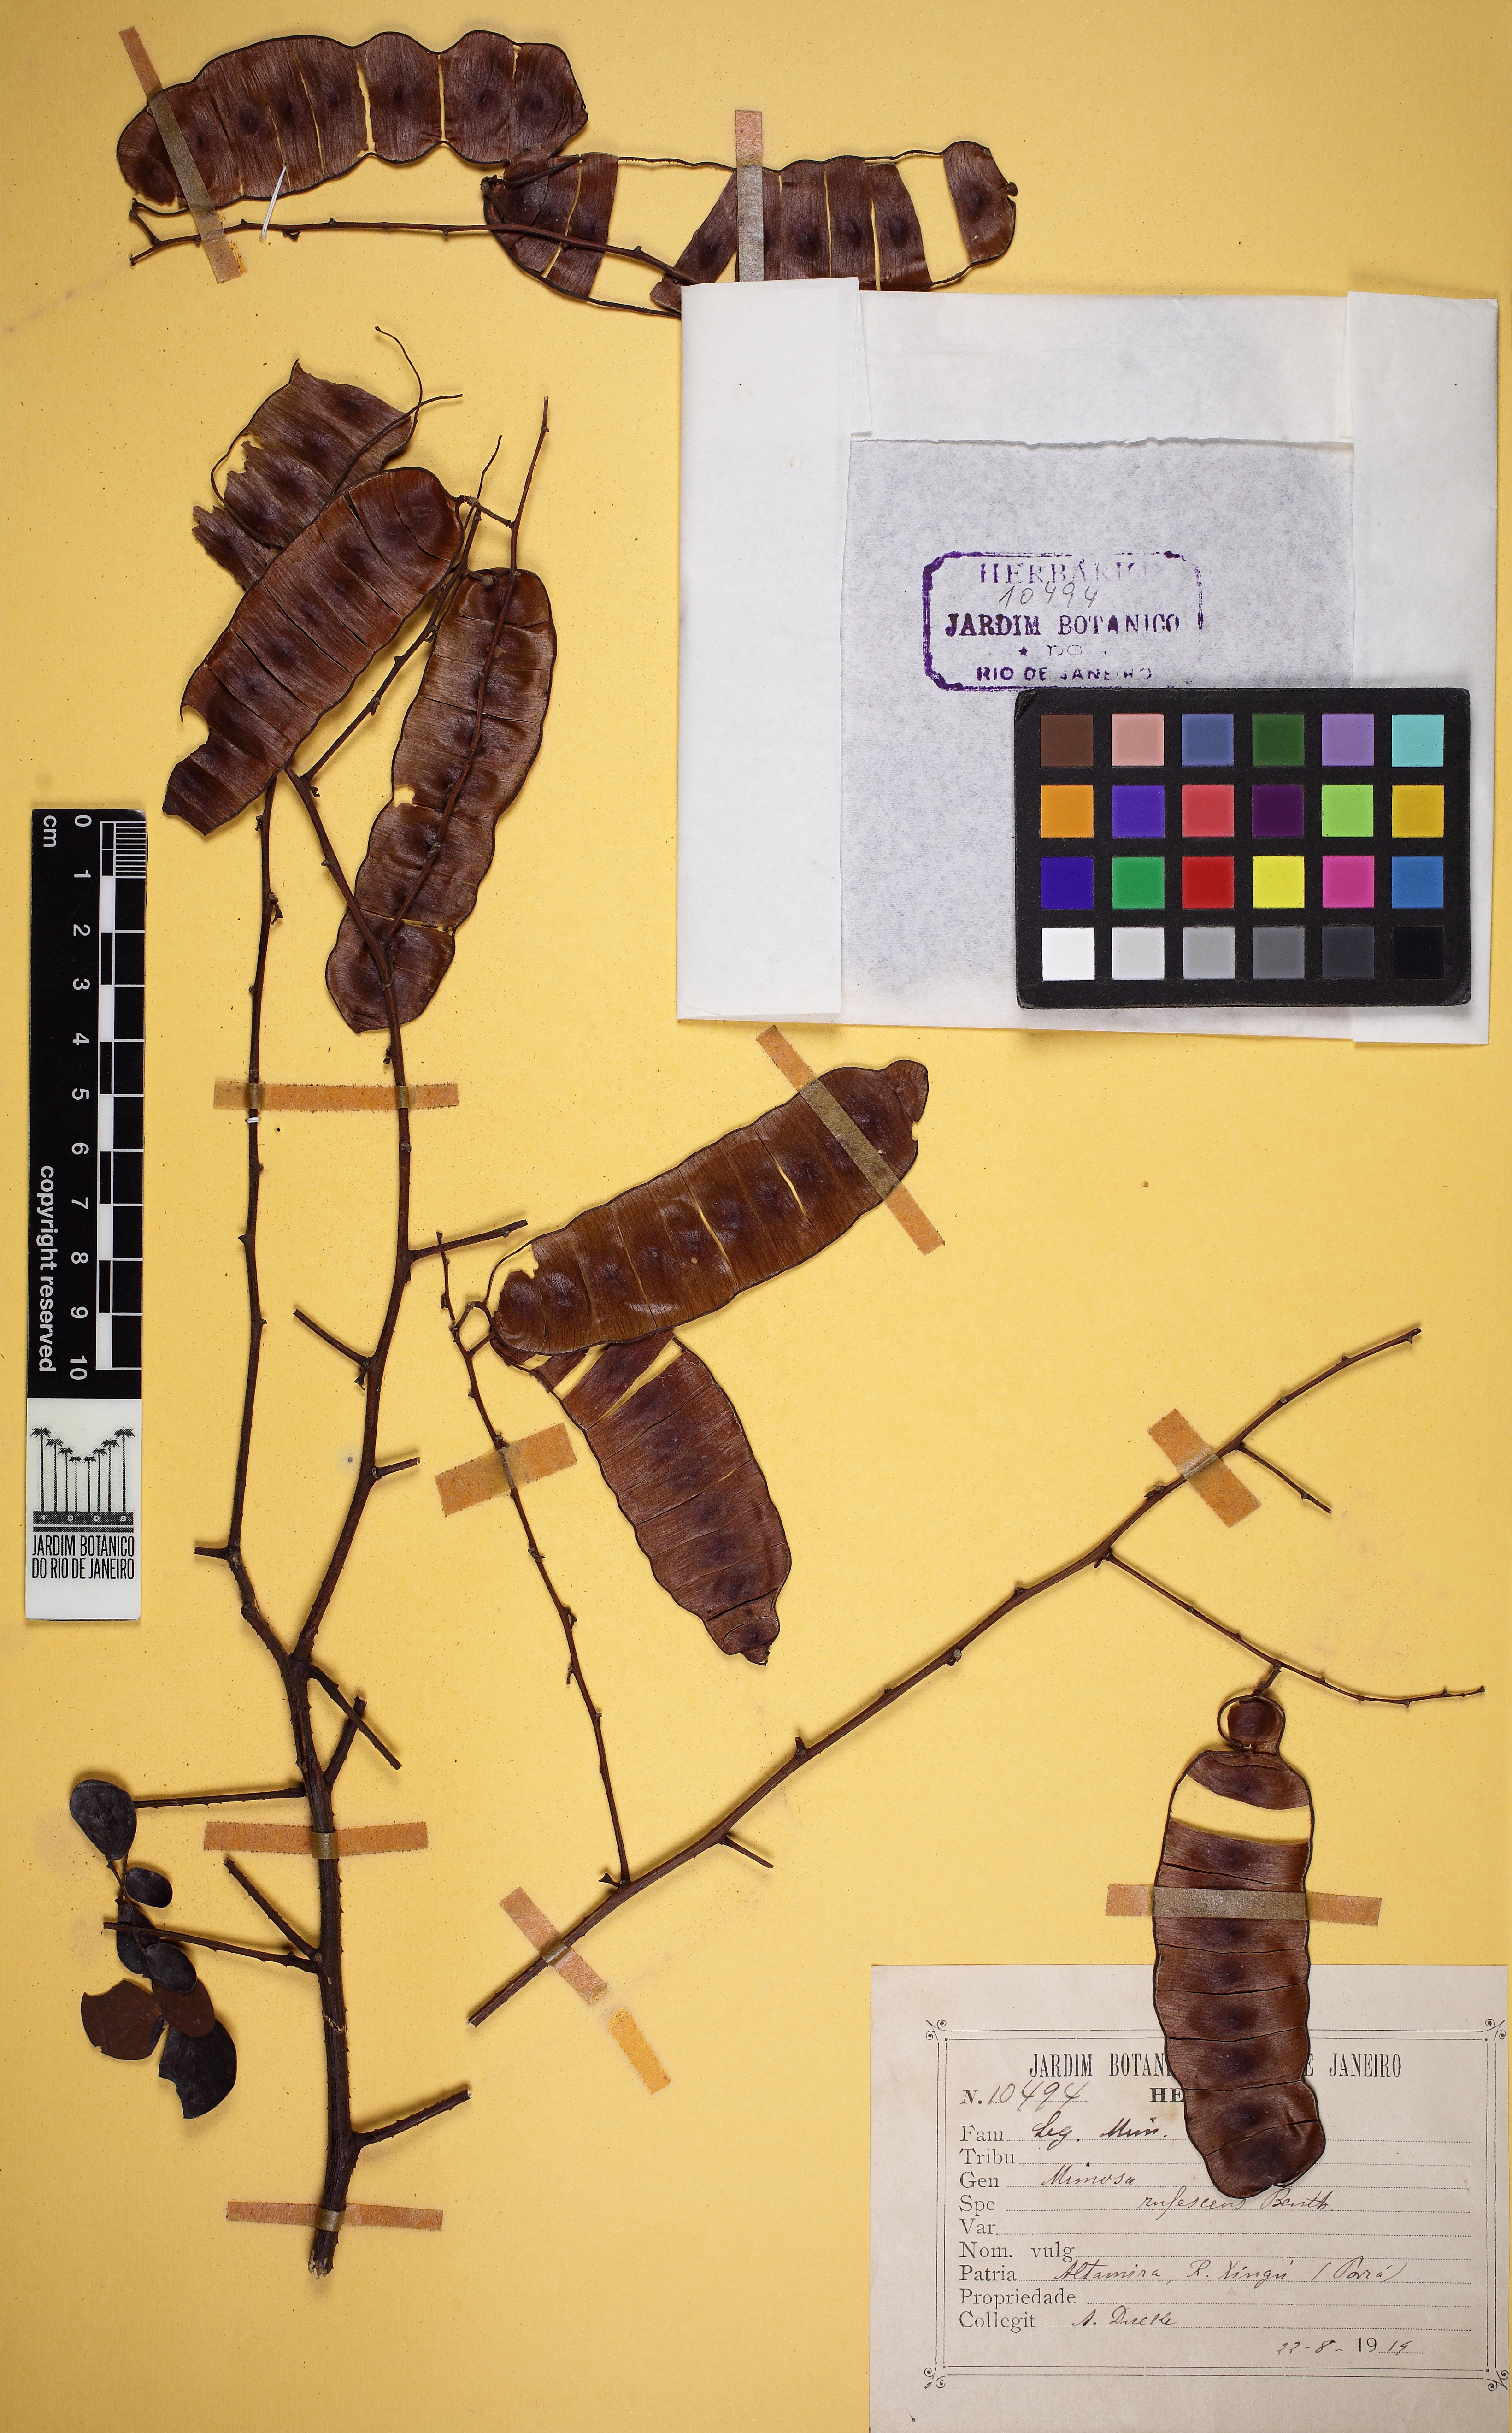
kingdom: Plantae
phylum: Tracheophyta
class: Magnoliopsida
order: Fabales
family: Fabaceae
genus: Mimosa
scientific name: Mimosa rufescens
